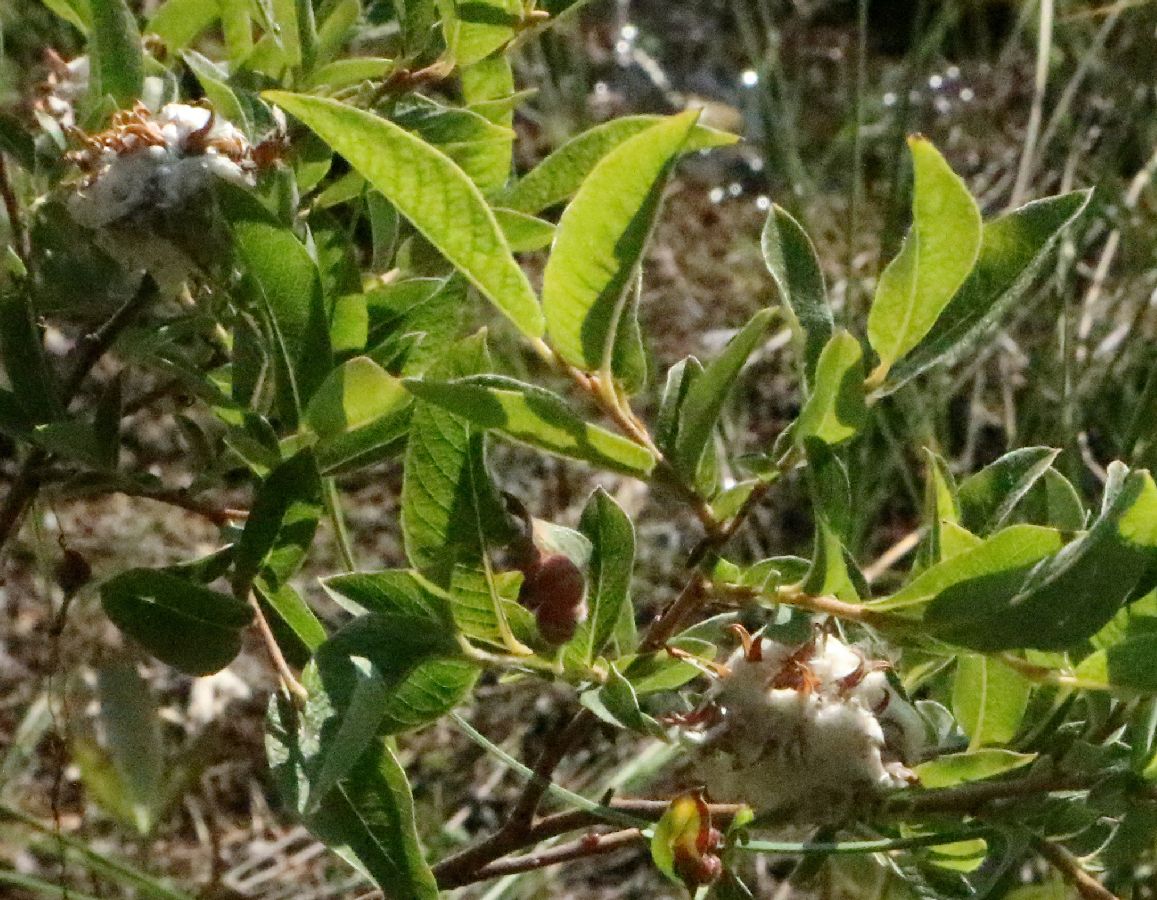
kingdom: Plantae
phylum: Tracheophyta
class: Magnoliopsida
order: Malpighiales
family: Salicaceae
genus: Salix
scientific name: Salix
